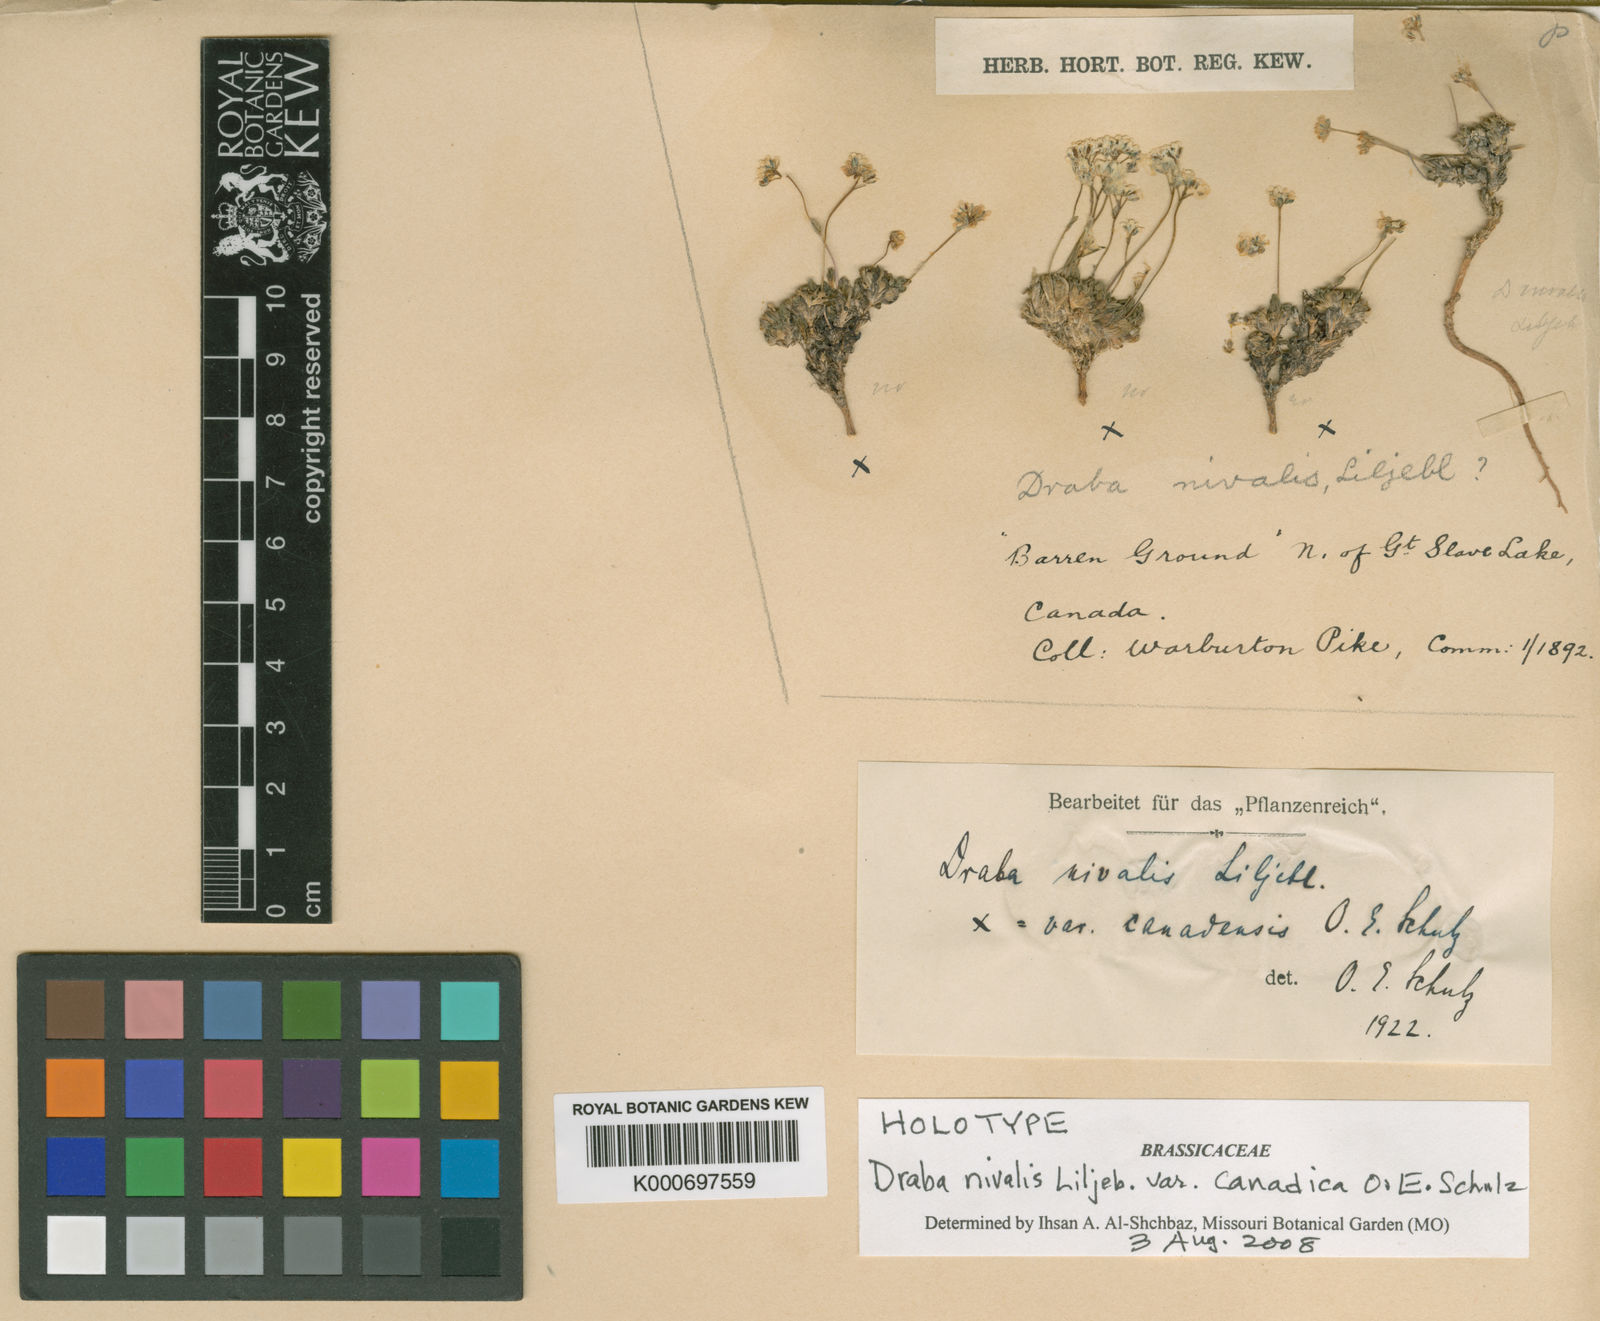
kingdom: Plantae
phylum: Tracheophyta
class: Magnoliopsida
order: Brassicales
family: Brassicaceae
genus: Draba
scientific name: Draba nivalis
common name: Snow draba
